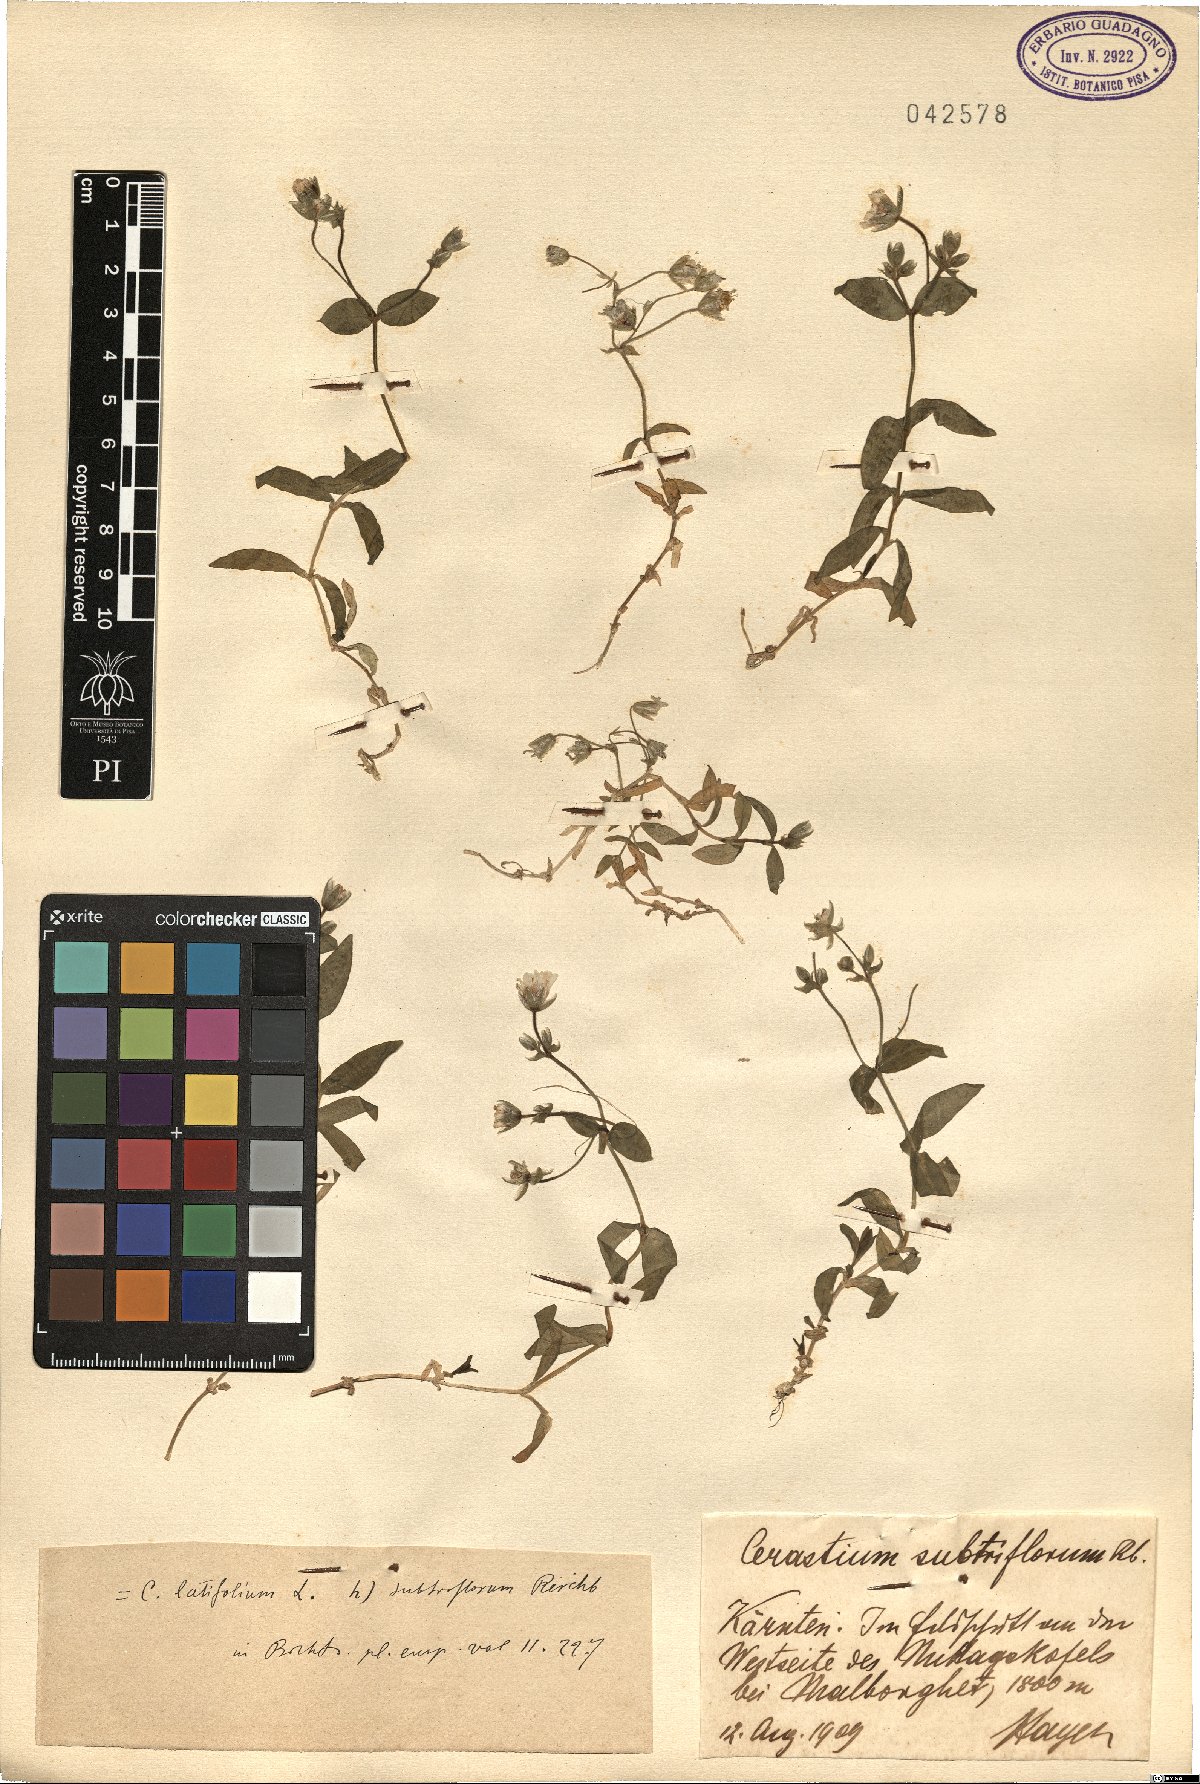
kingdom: Plantae
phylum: Tracheophyta
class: Magnoliopsida
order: Caryophyllales
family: Caryophyllaceae
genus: Cerastium
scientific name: Cerastium subtriflorum
